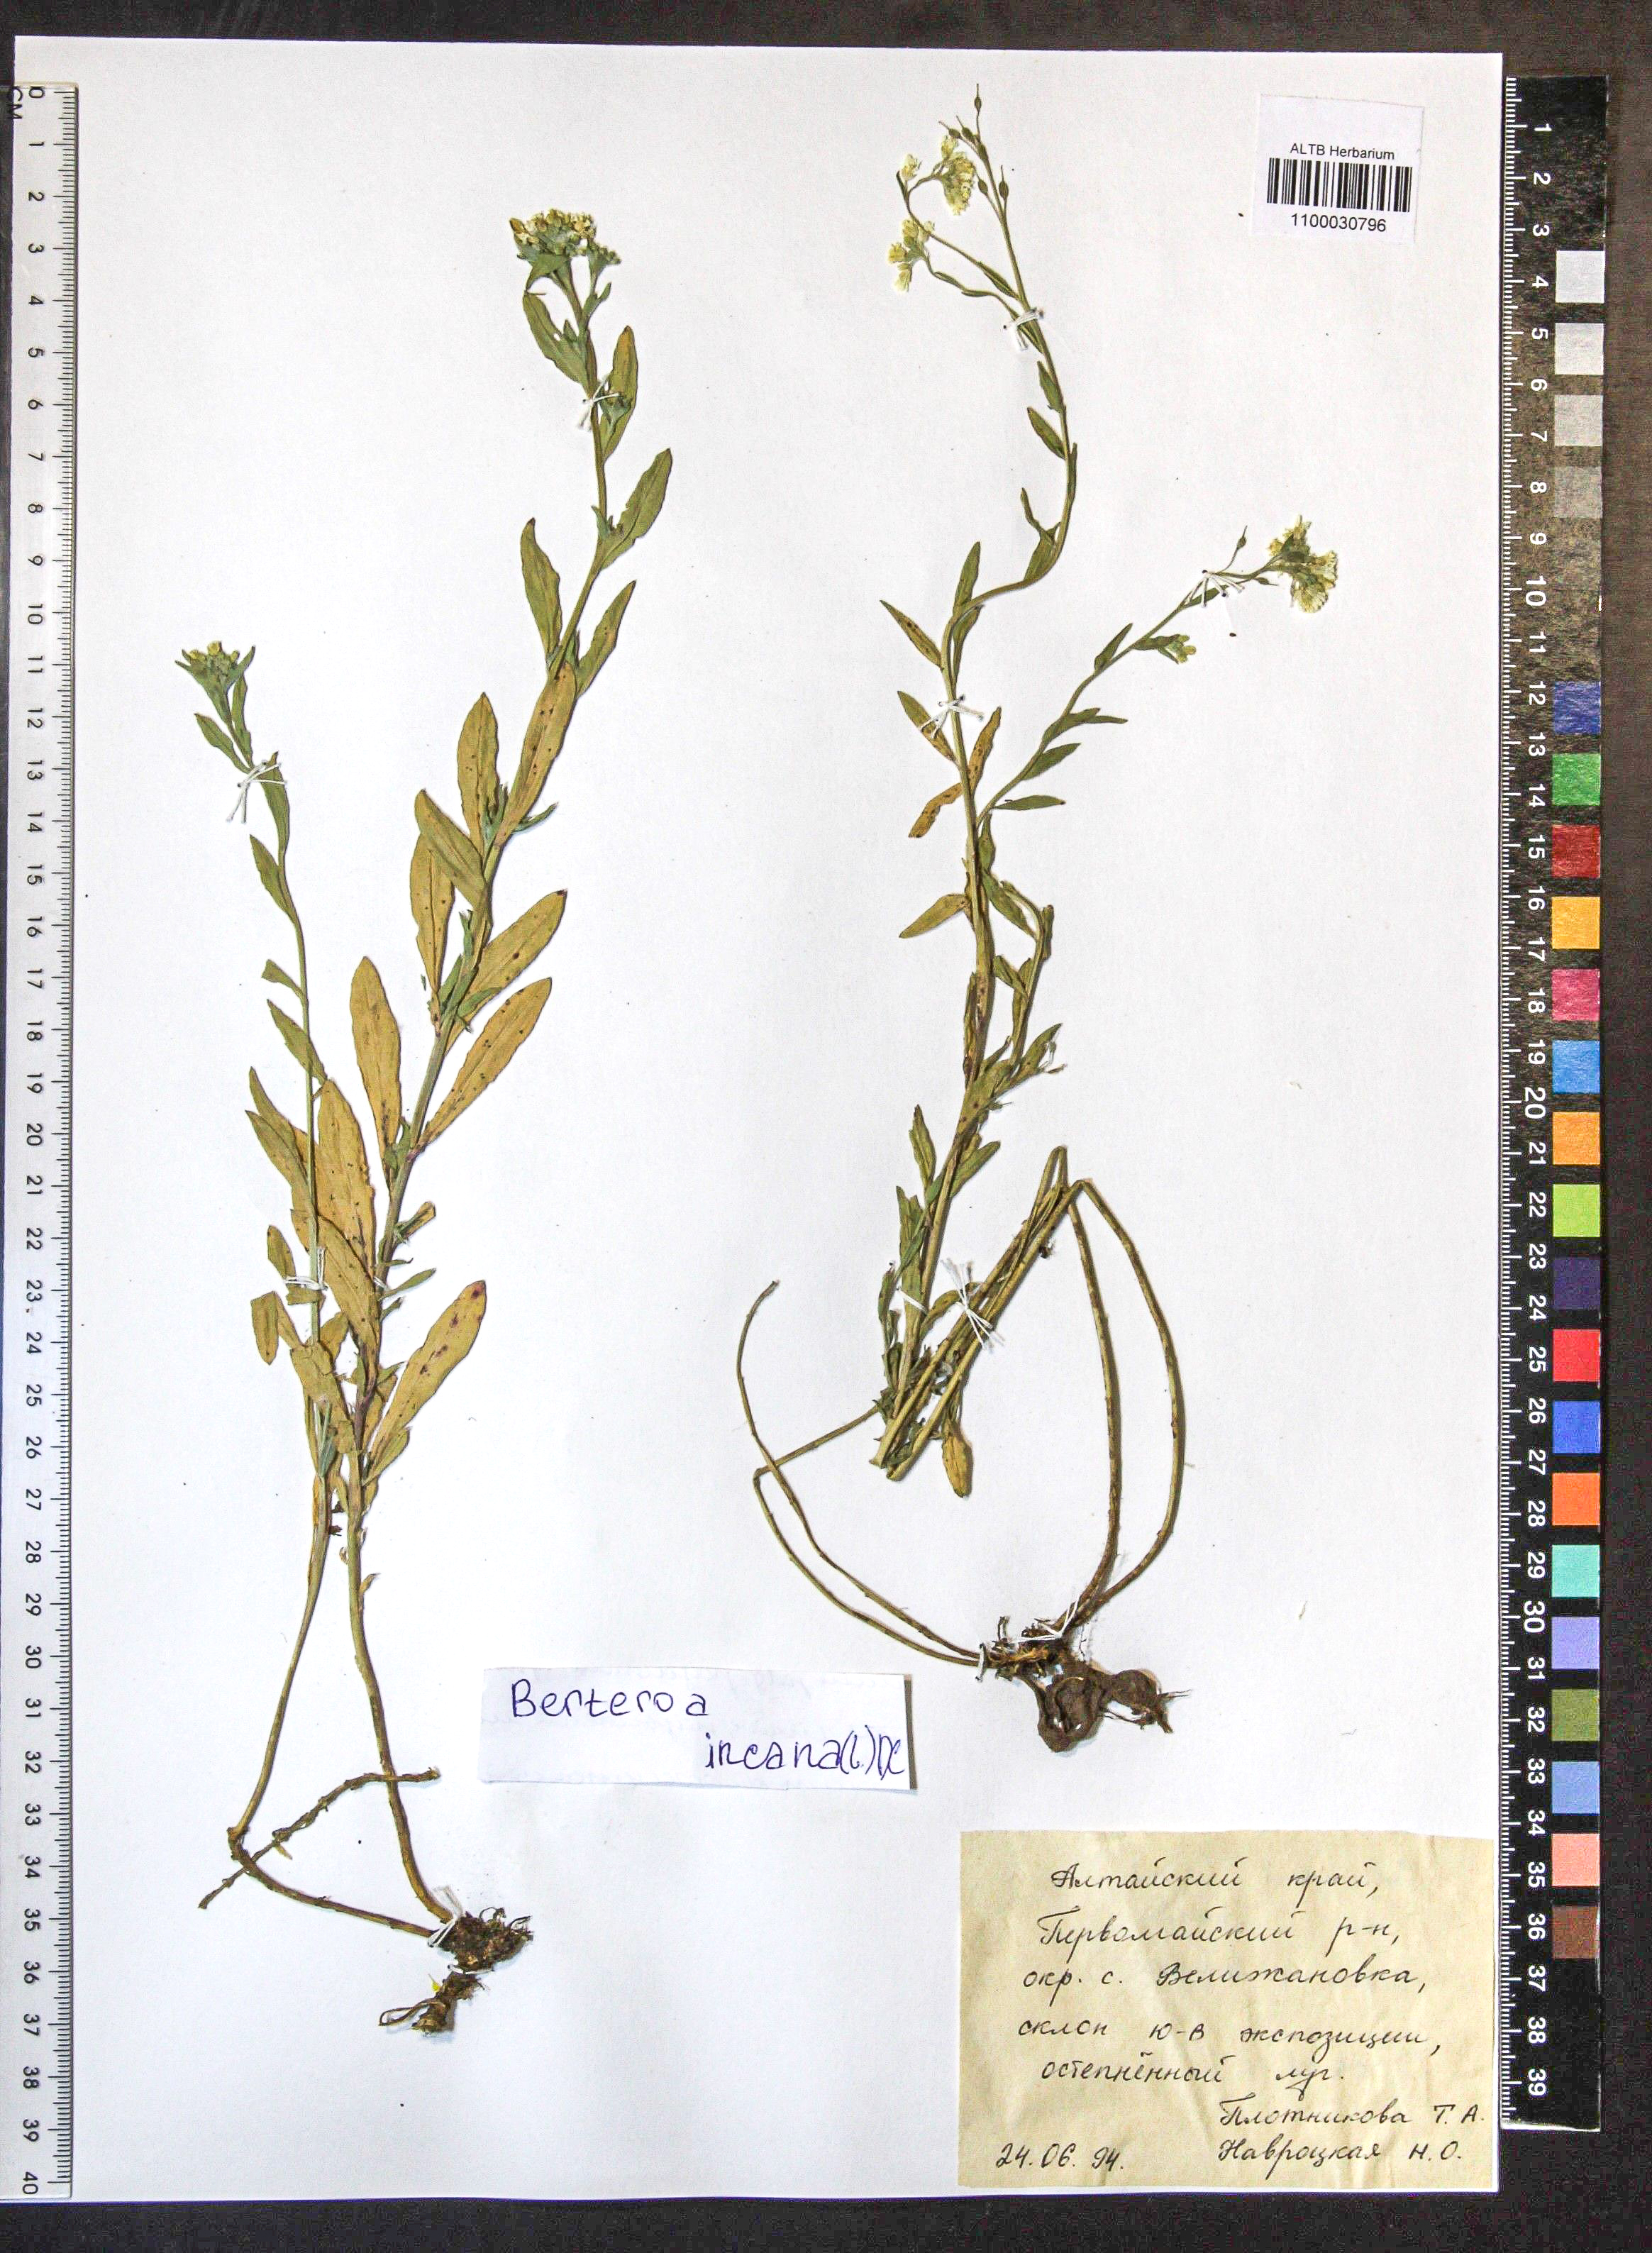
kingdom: Plantae
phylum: Tracheophyta
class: Magnoliopsida
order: Brassicales
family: Brassicaceae
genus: Berteroa
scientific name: Berteroa incana
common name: Hoary alison
